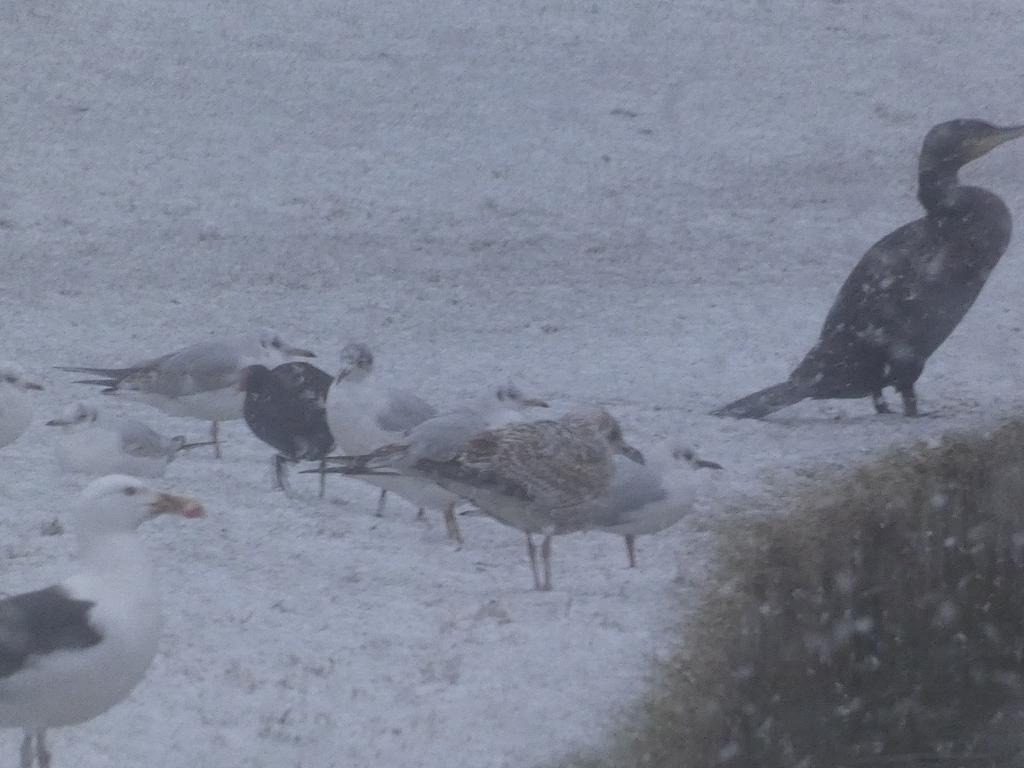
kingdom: Animalia
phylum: Chordata
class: Aves
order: Charadriiformes
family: Laridae
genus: Larus
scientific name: Larus argentatus
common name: Sølvmåge
